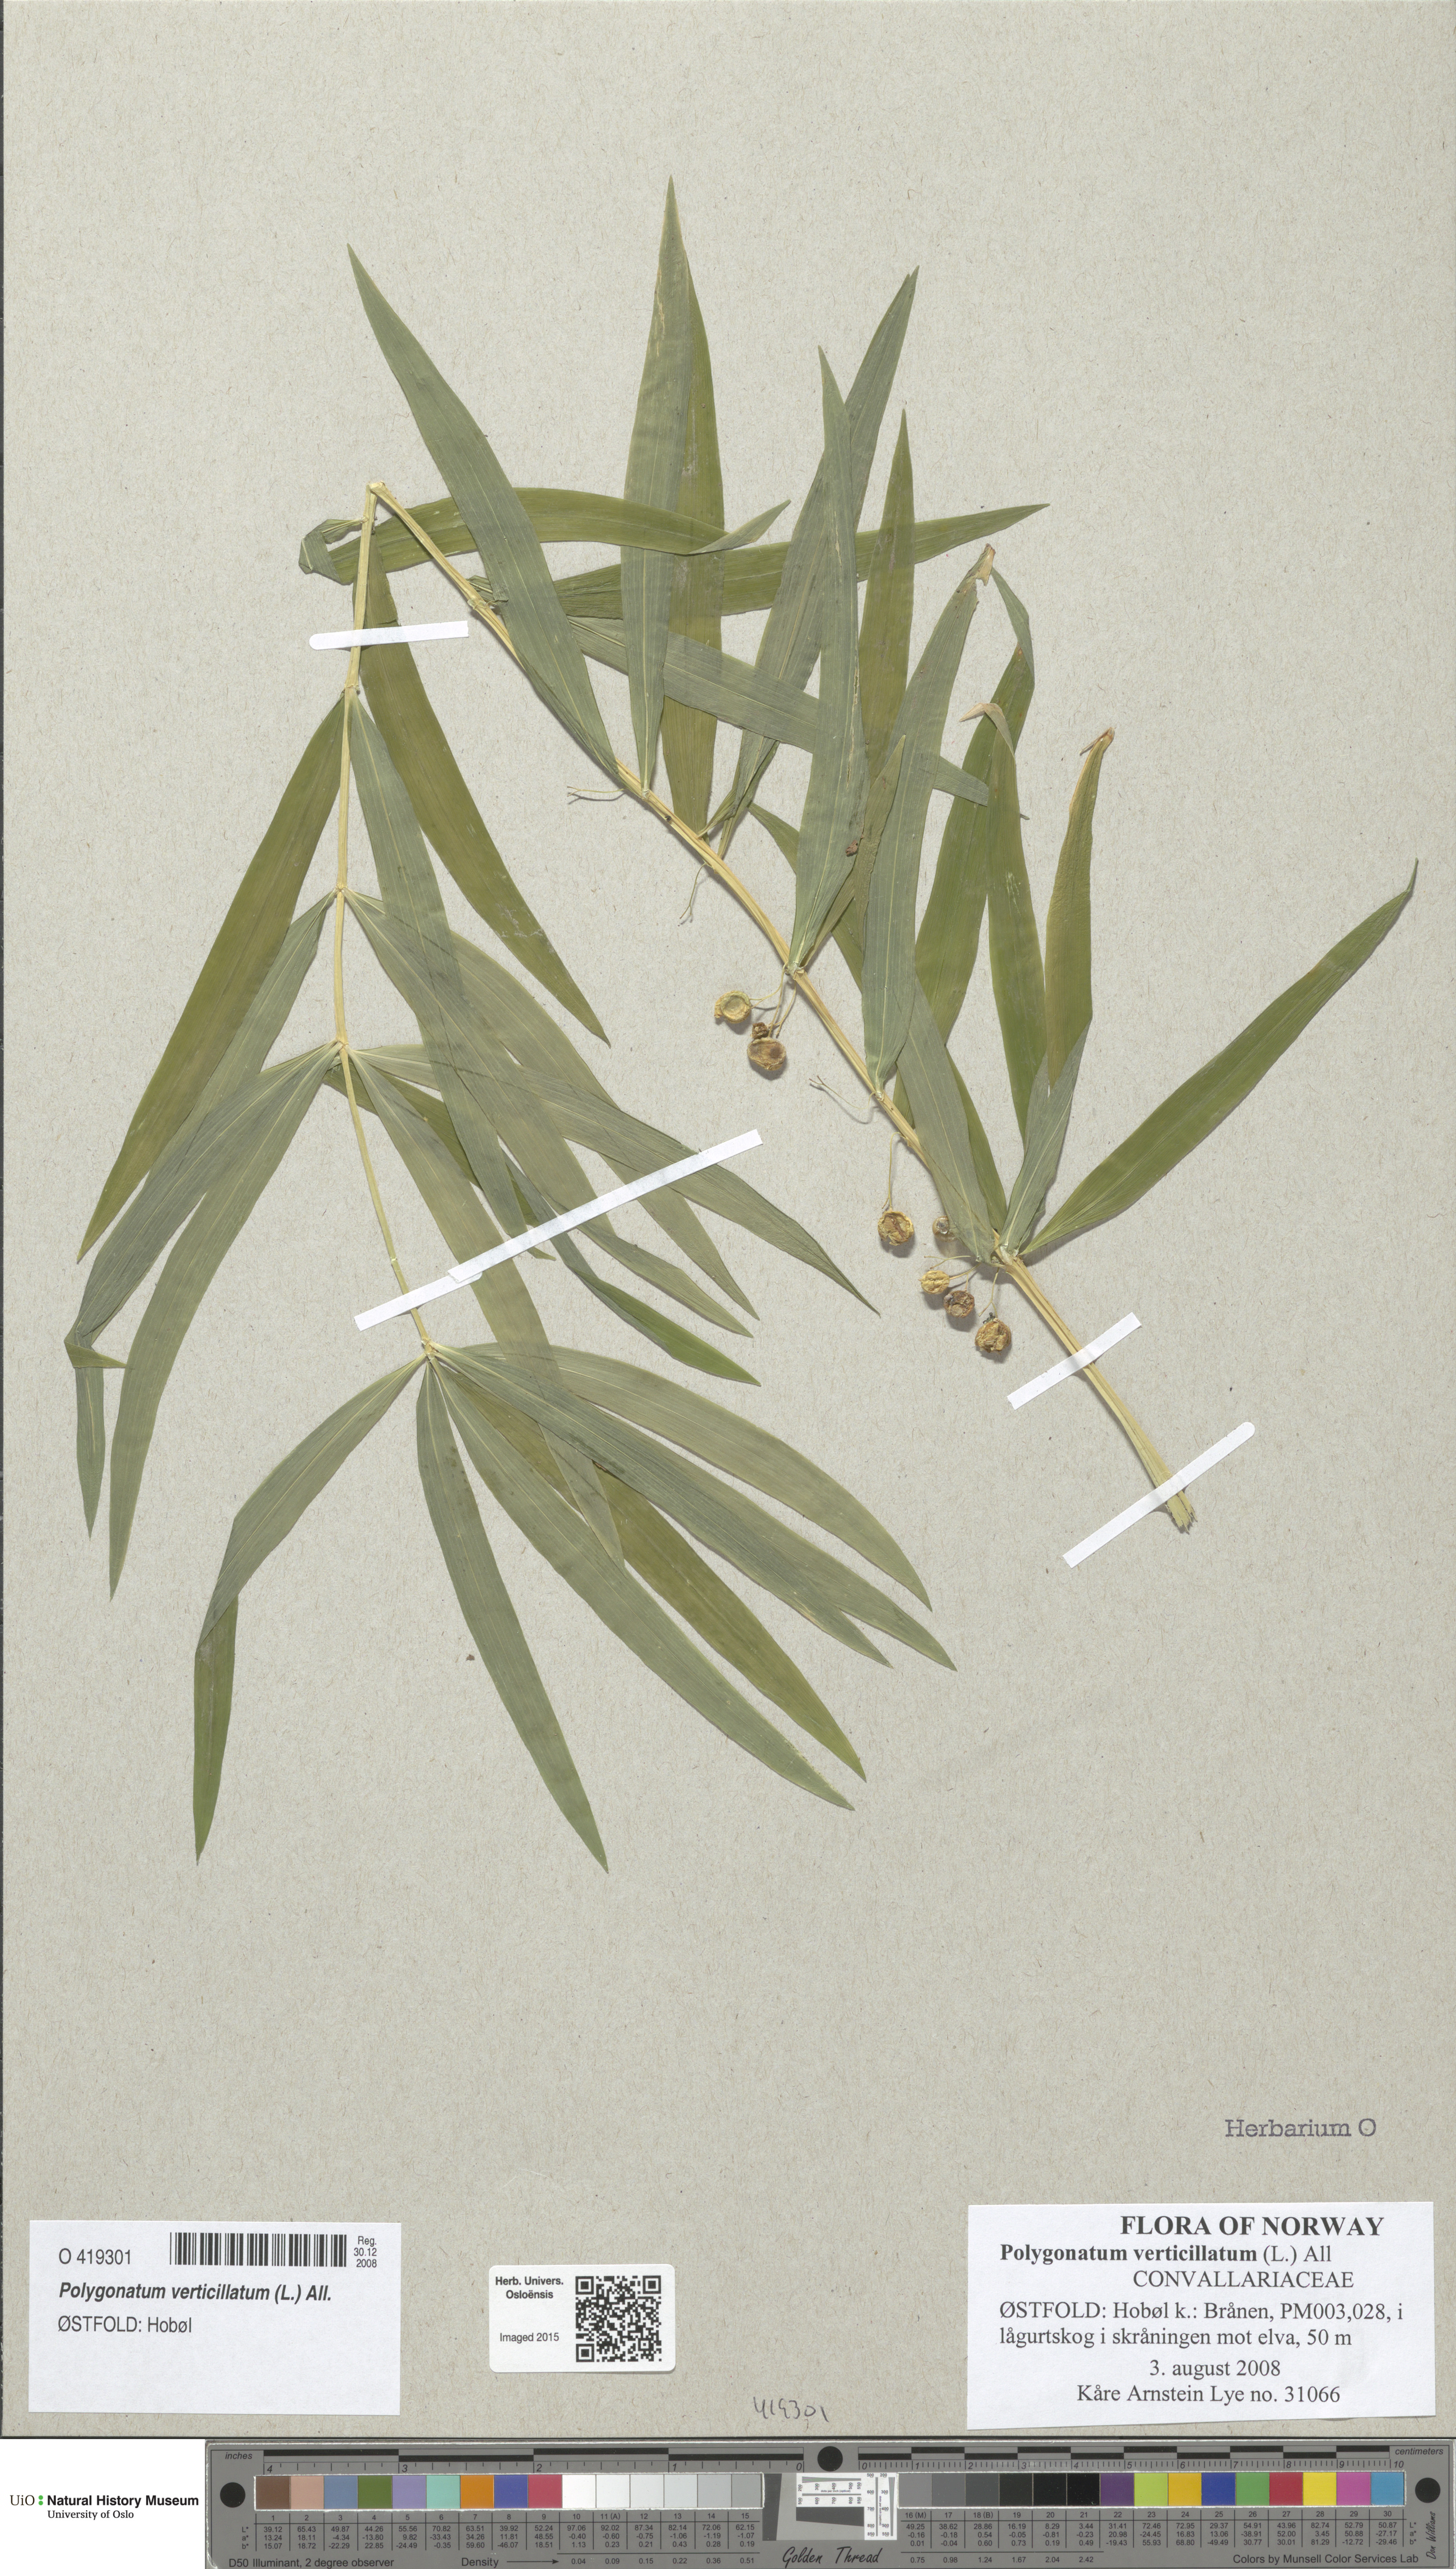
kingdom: Plantae
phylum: Tracheophyta
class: Liliopsida
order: Asparagales
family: Asparagaceae
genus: Polygonatum
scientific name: Polygonatum verticillatum
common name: Whorled solomon's-seal
